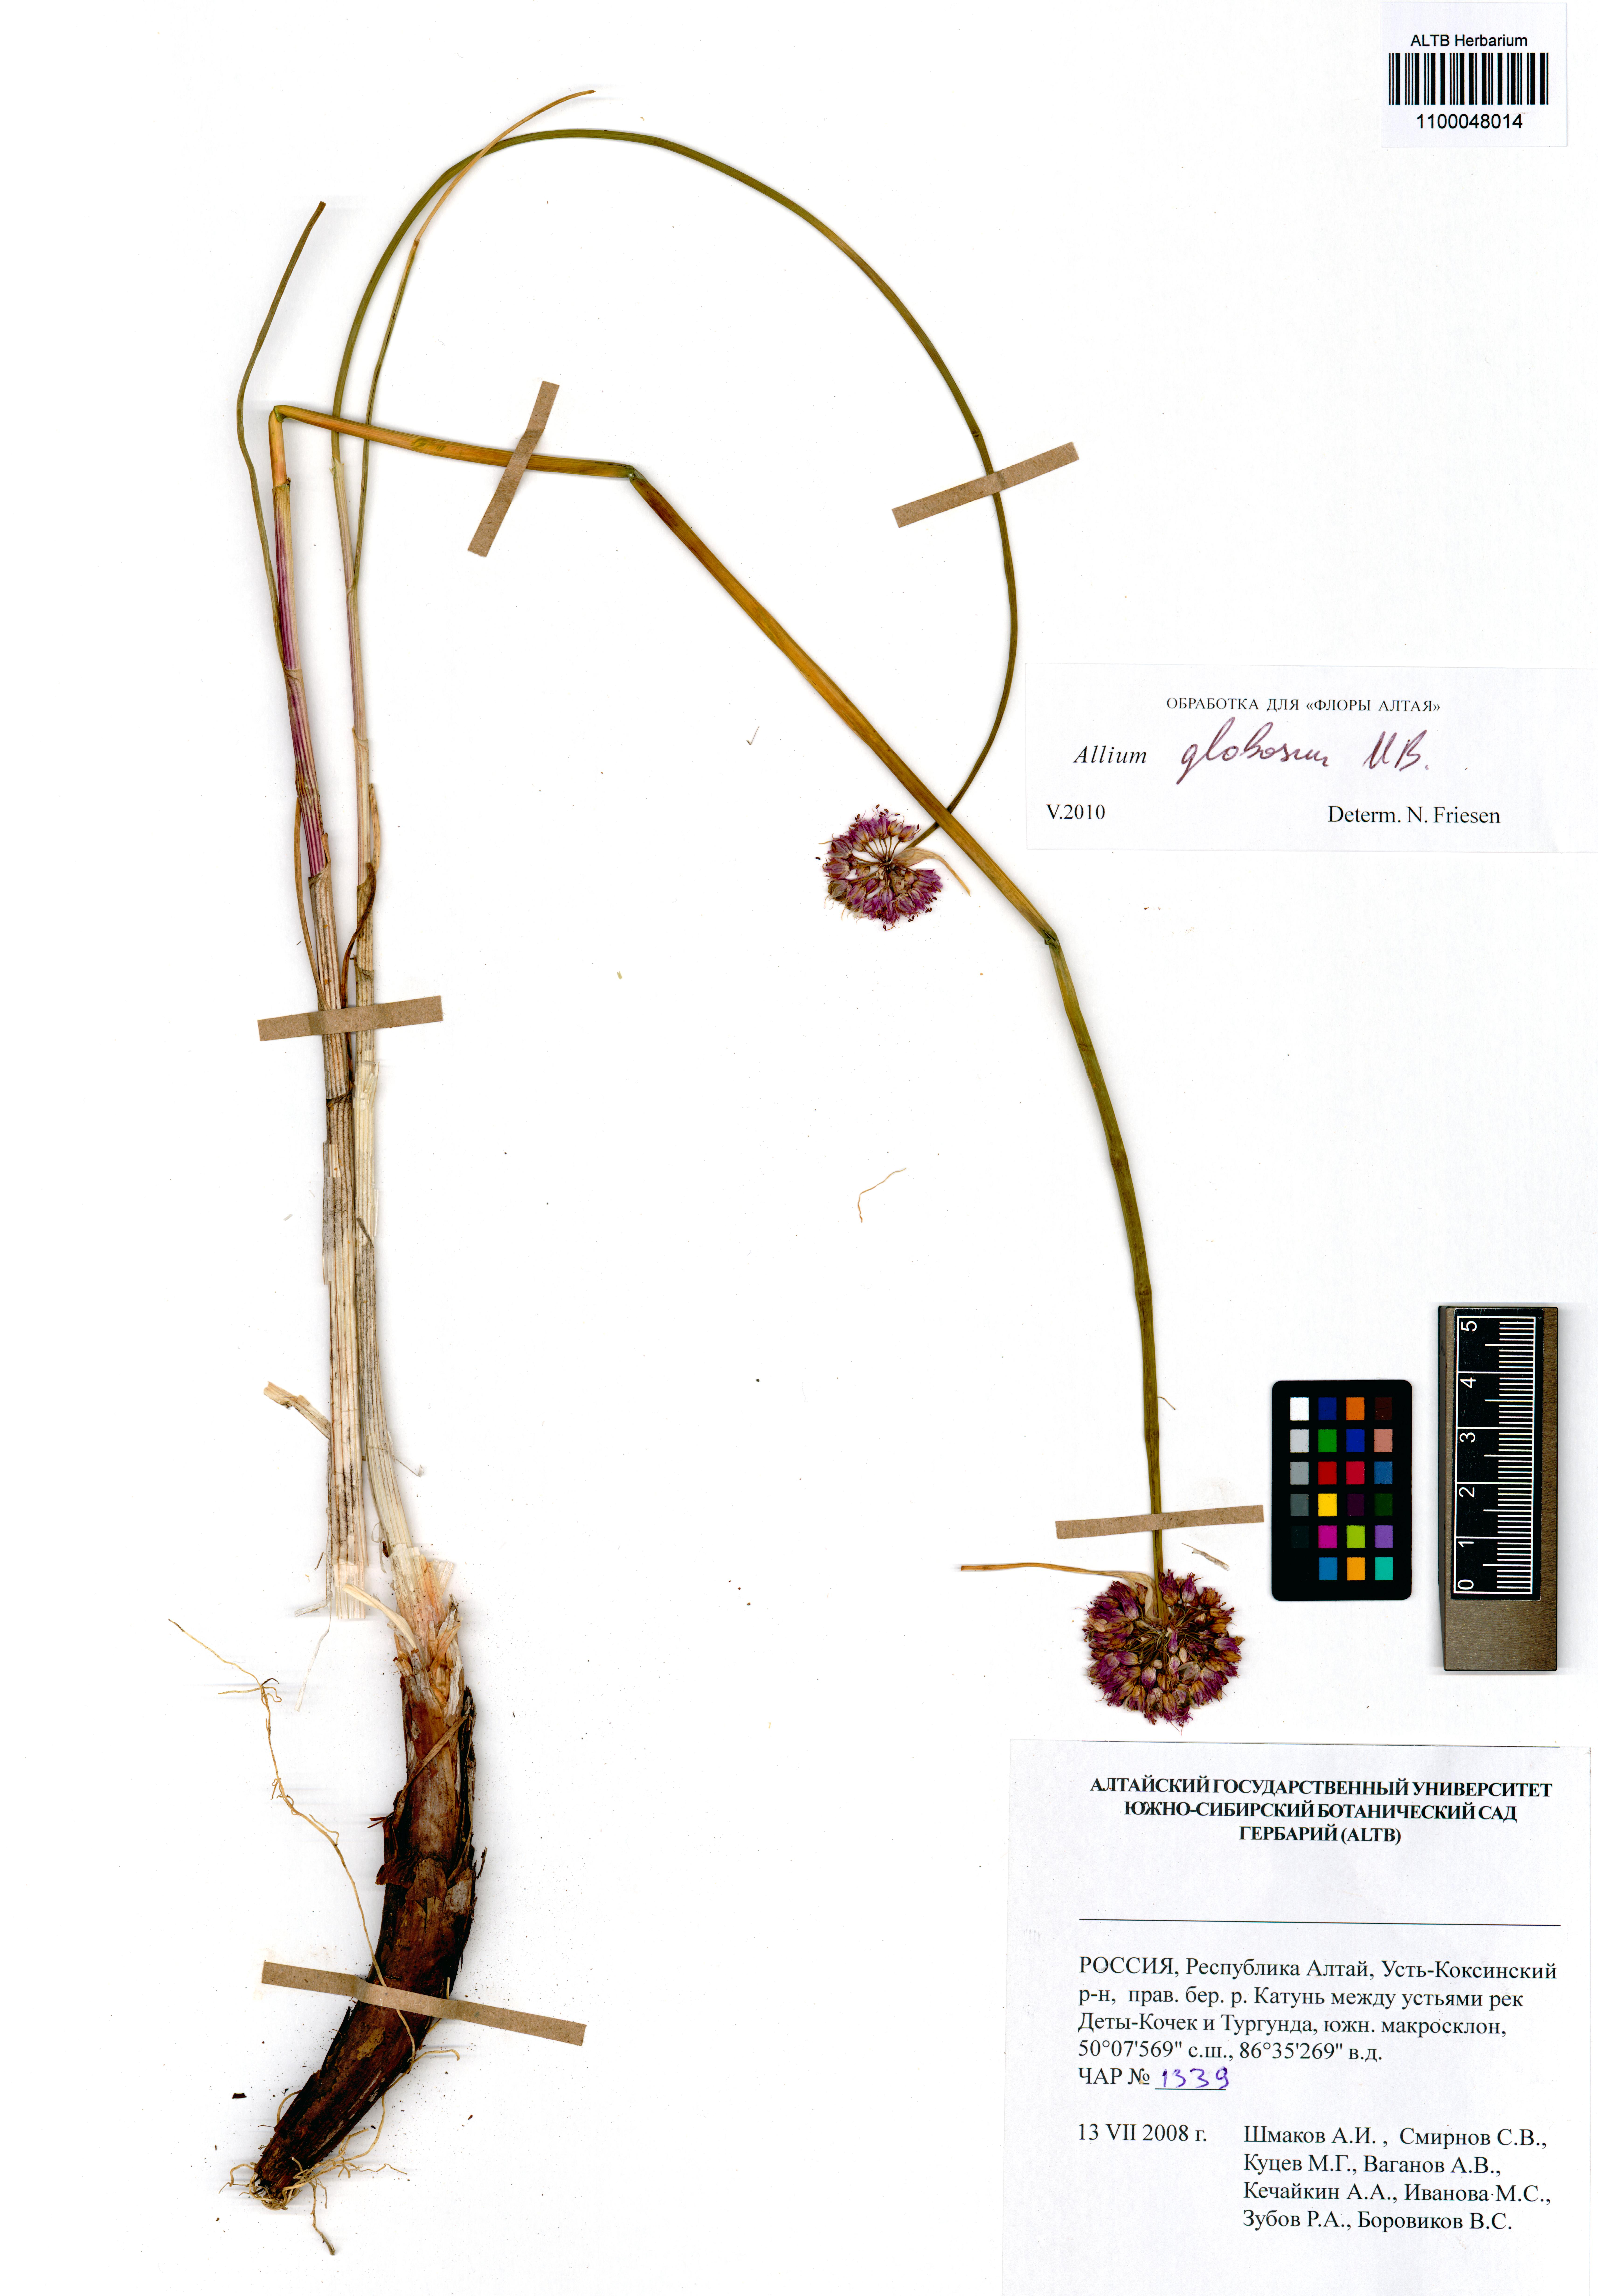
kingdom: Plantae
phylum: Tracheophyta
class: Liliopsida
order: Asparagales
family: Amaryllidaceae
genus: Allium
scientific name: Allium saxatile
